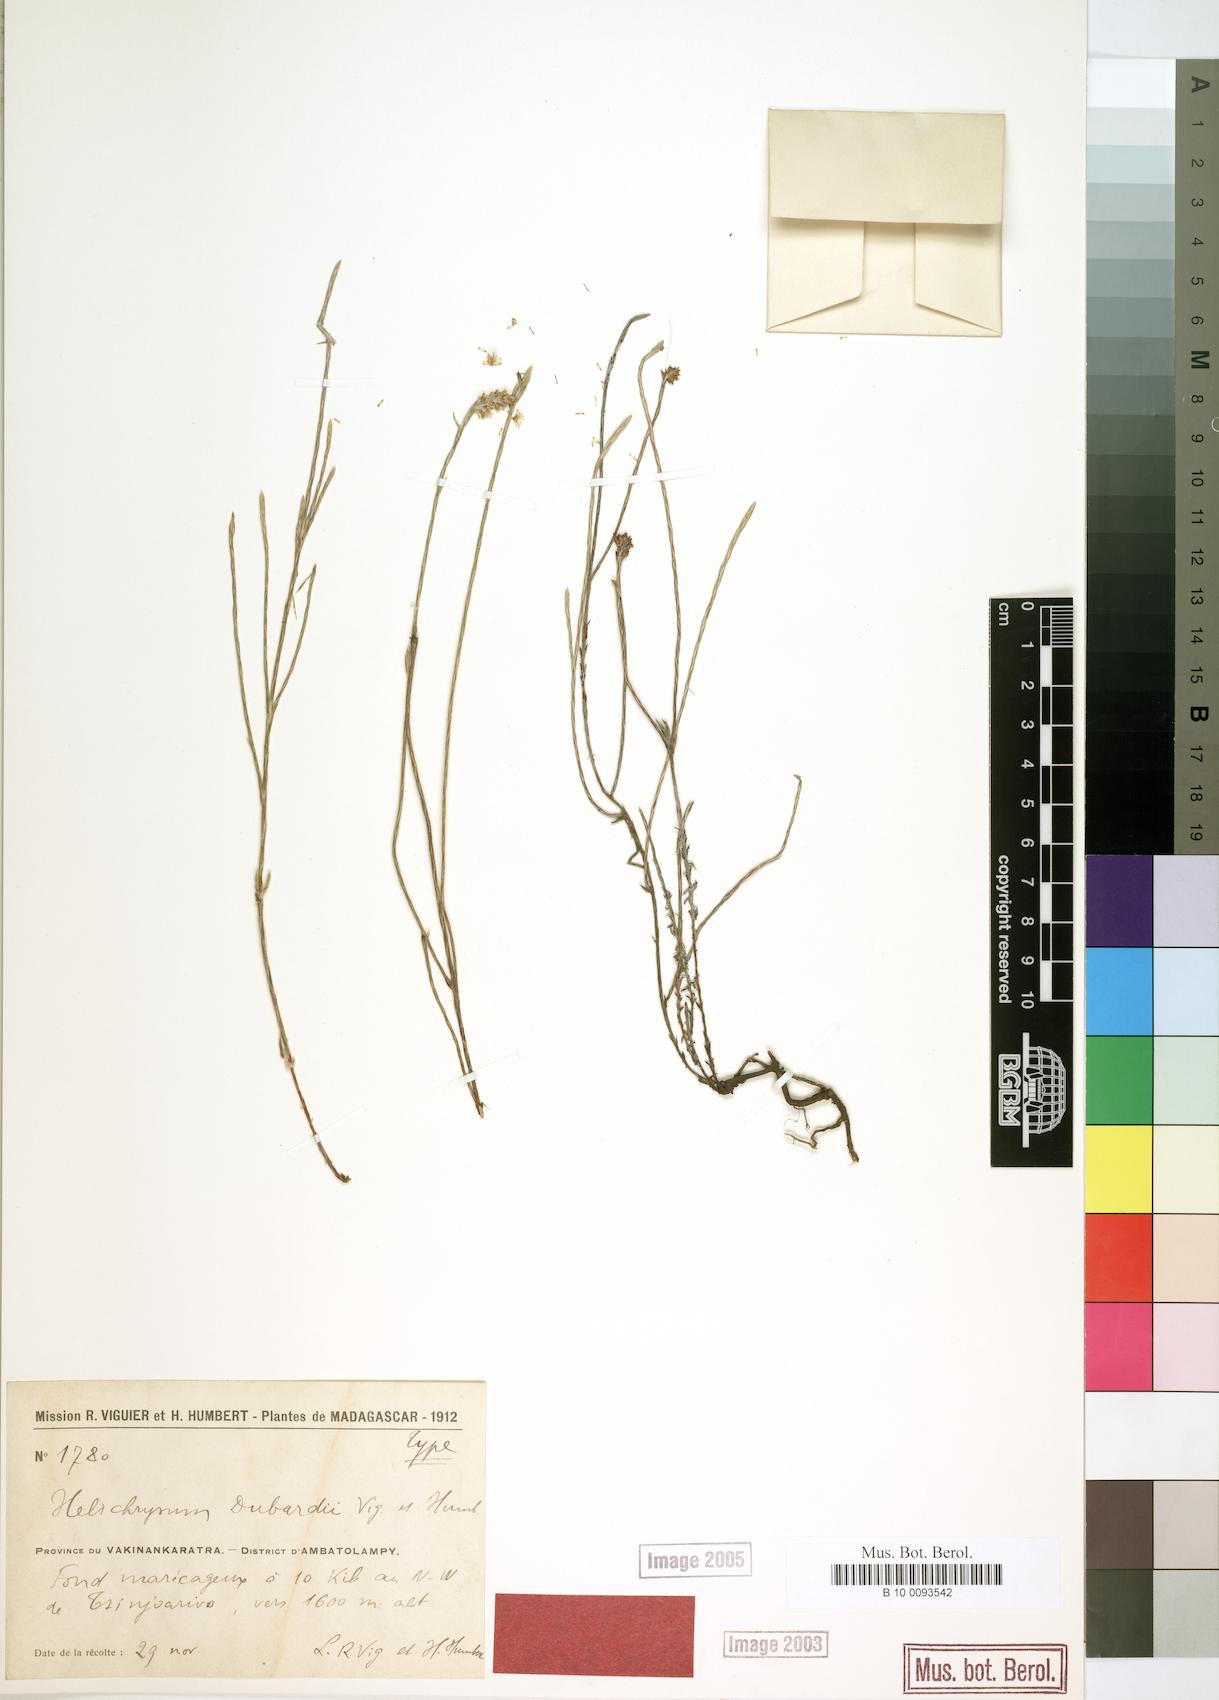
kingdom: Plantae
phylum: Tracheophyta
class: Magnoliopsida
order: Asterales
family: Asteraceae
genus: Helichrysum
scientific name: Helichrysum dubardii
